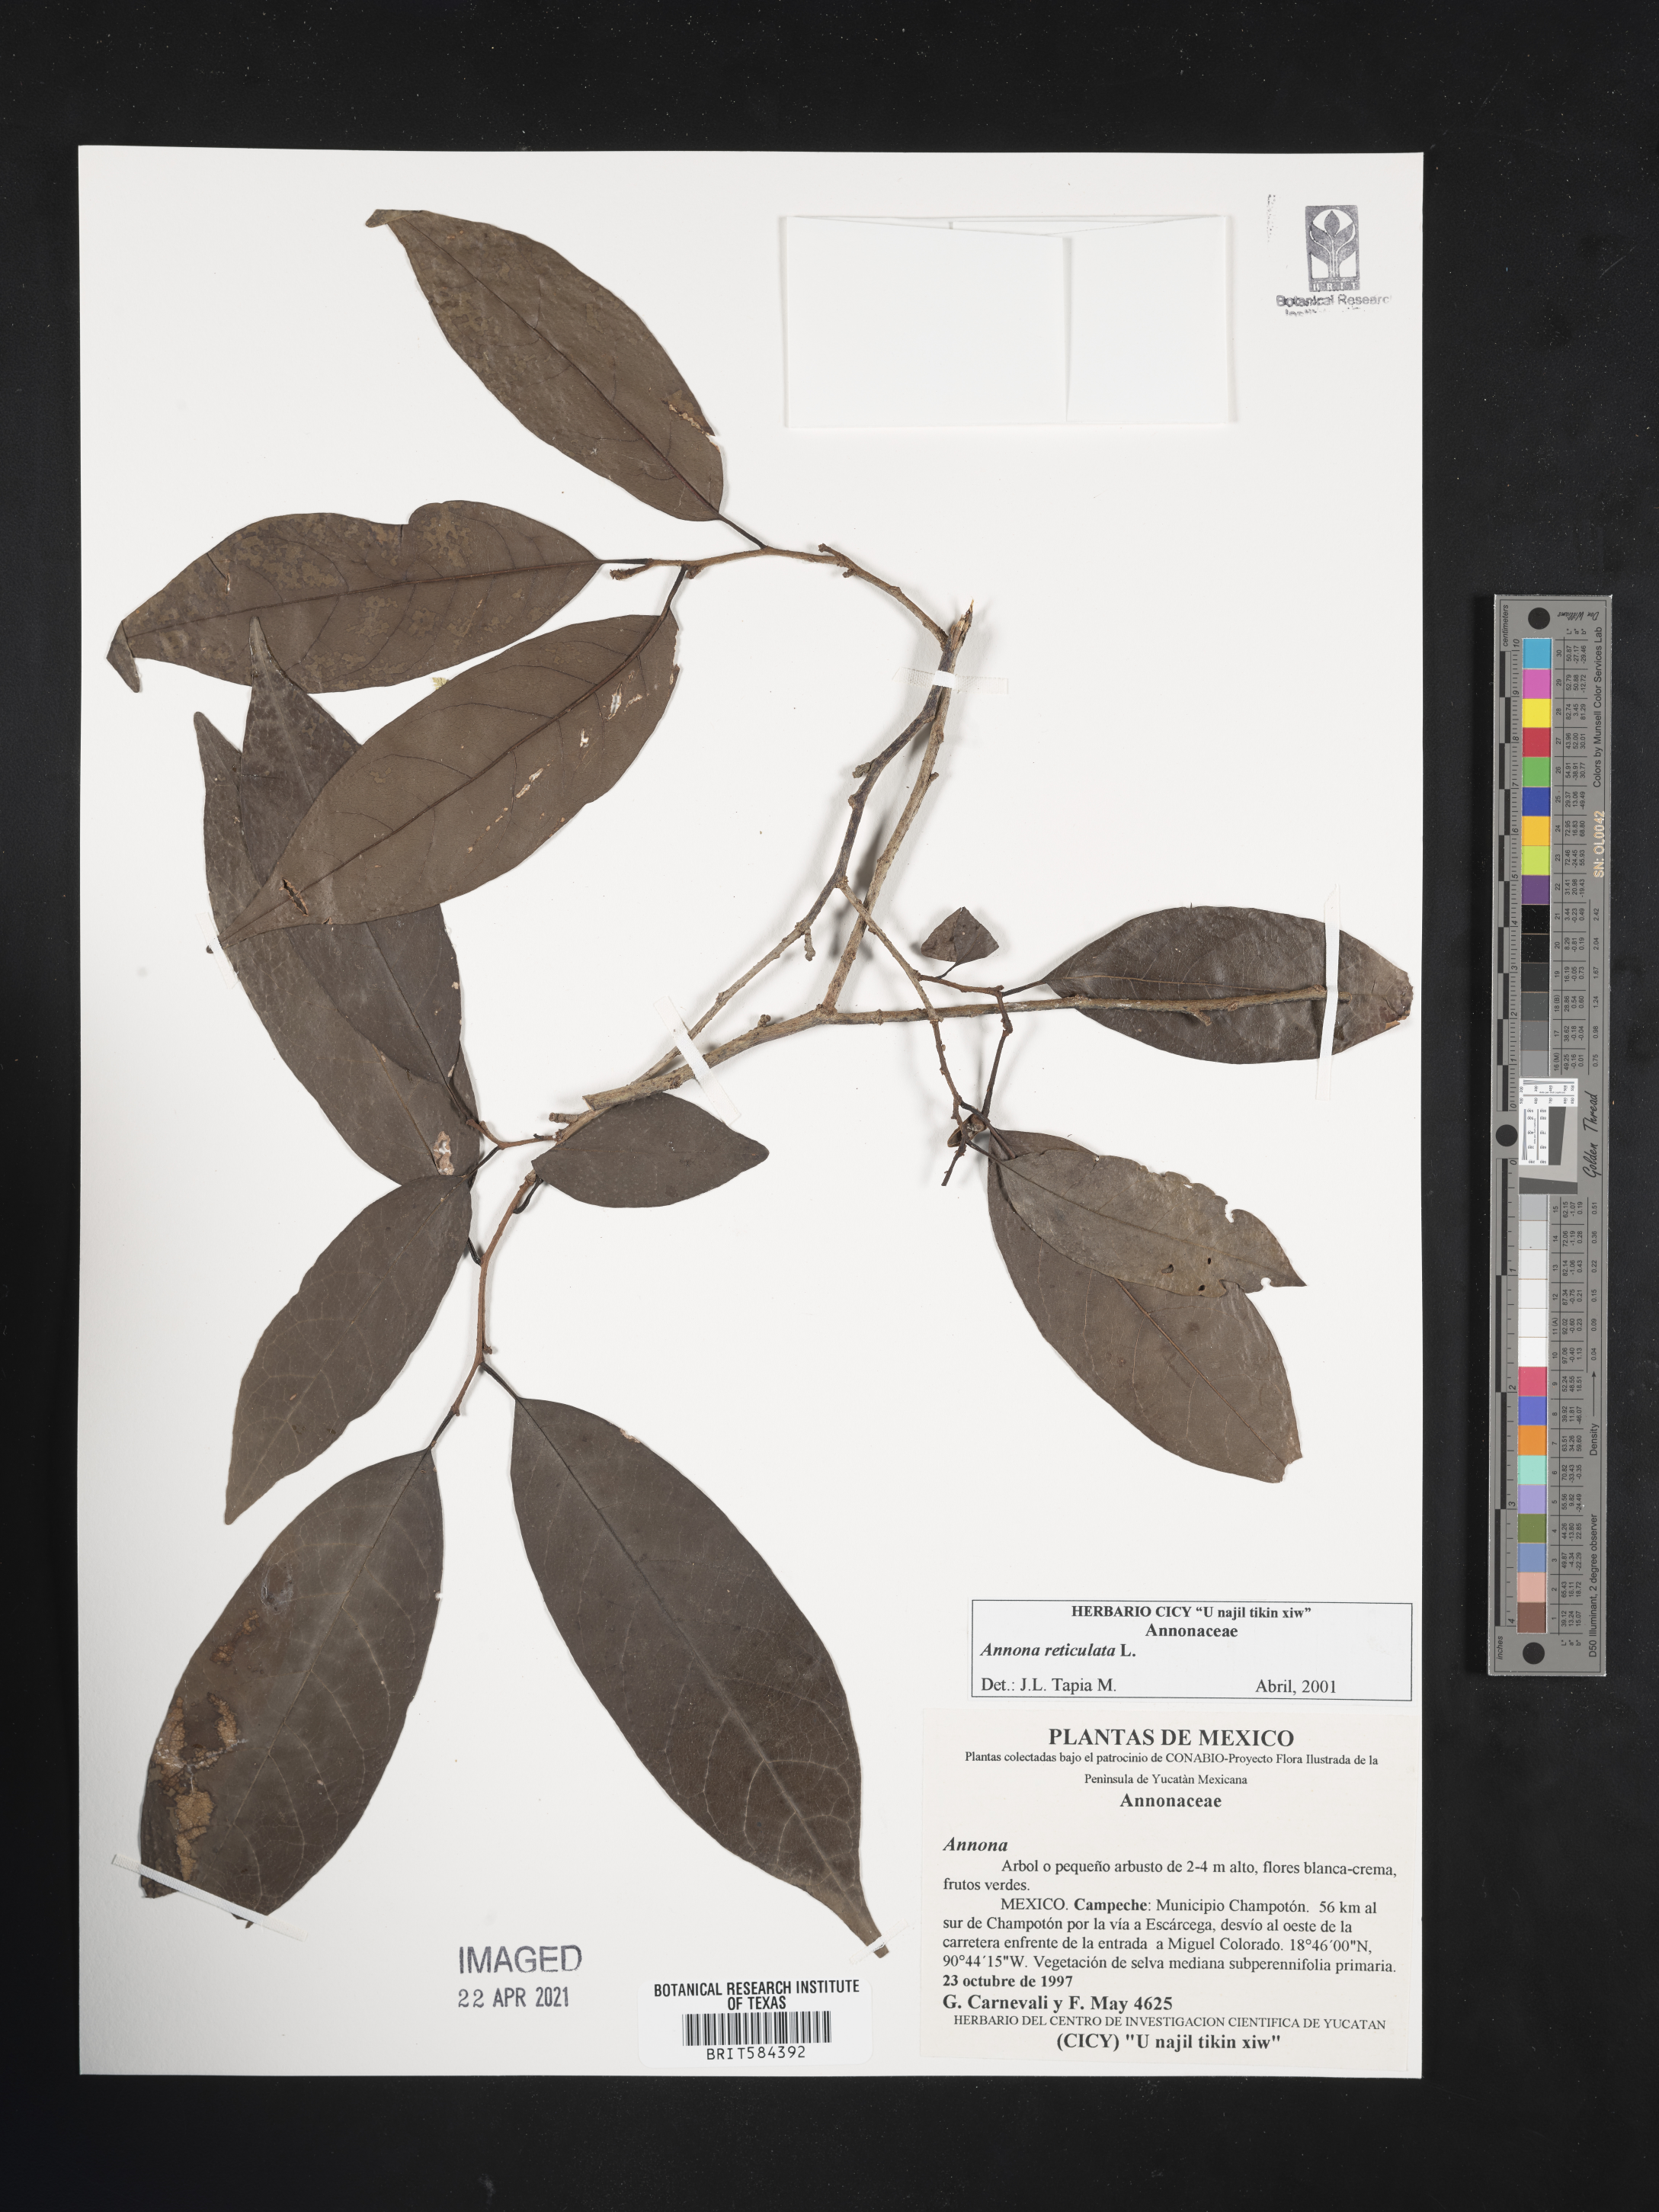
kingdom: Plantae
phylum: Tracheophyta
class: Magnoliopsida
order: Magnoliales
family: Annonaceae
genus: Annona
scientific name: Annona montana
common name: Mountain soursop
